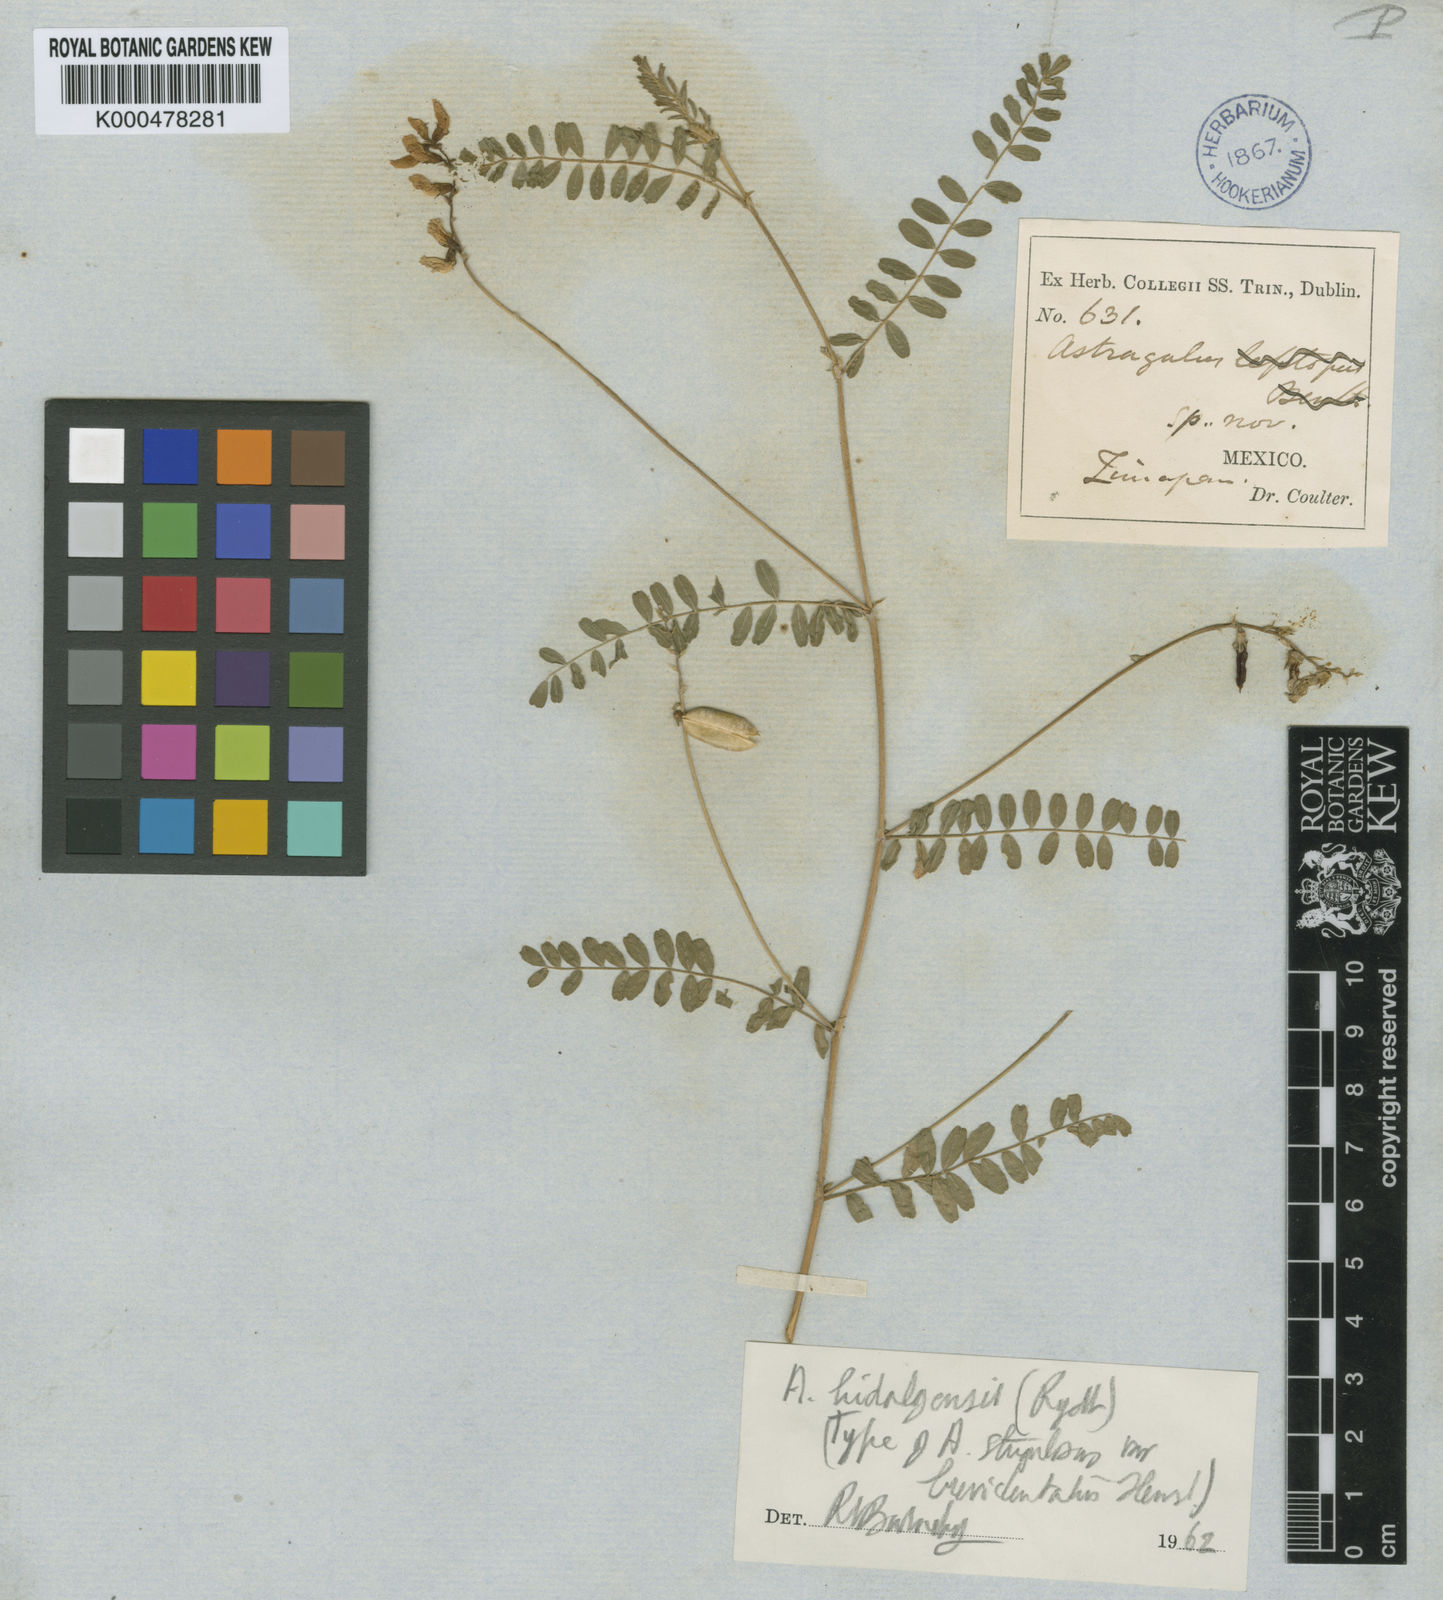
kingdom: Plantae
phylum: Tracheophyta
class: Magnoliopsida
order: Fabales
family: Fabaceae
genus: Astragalus
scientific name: Astragalus hidalgensis
